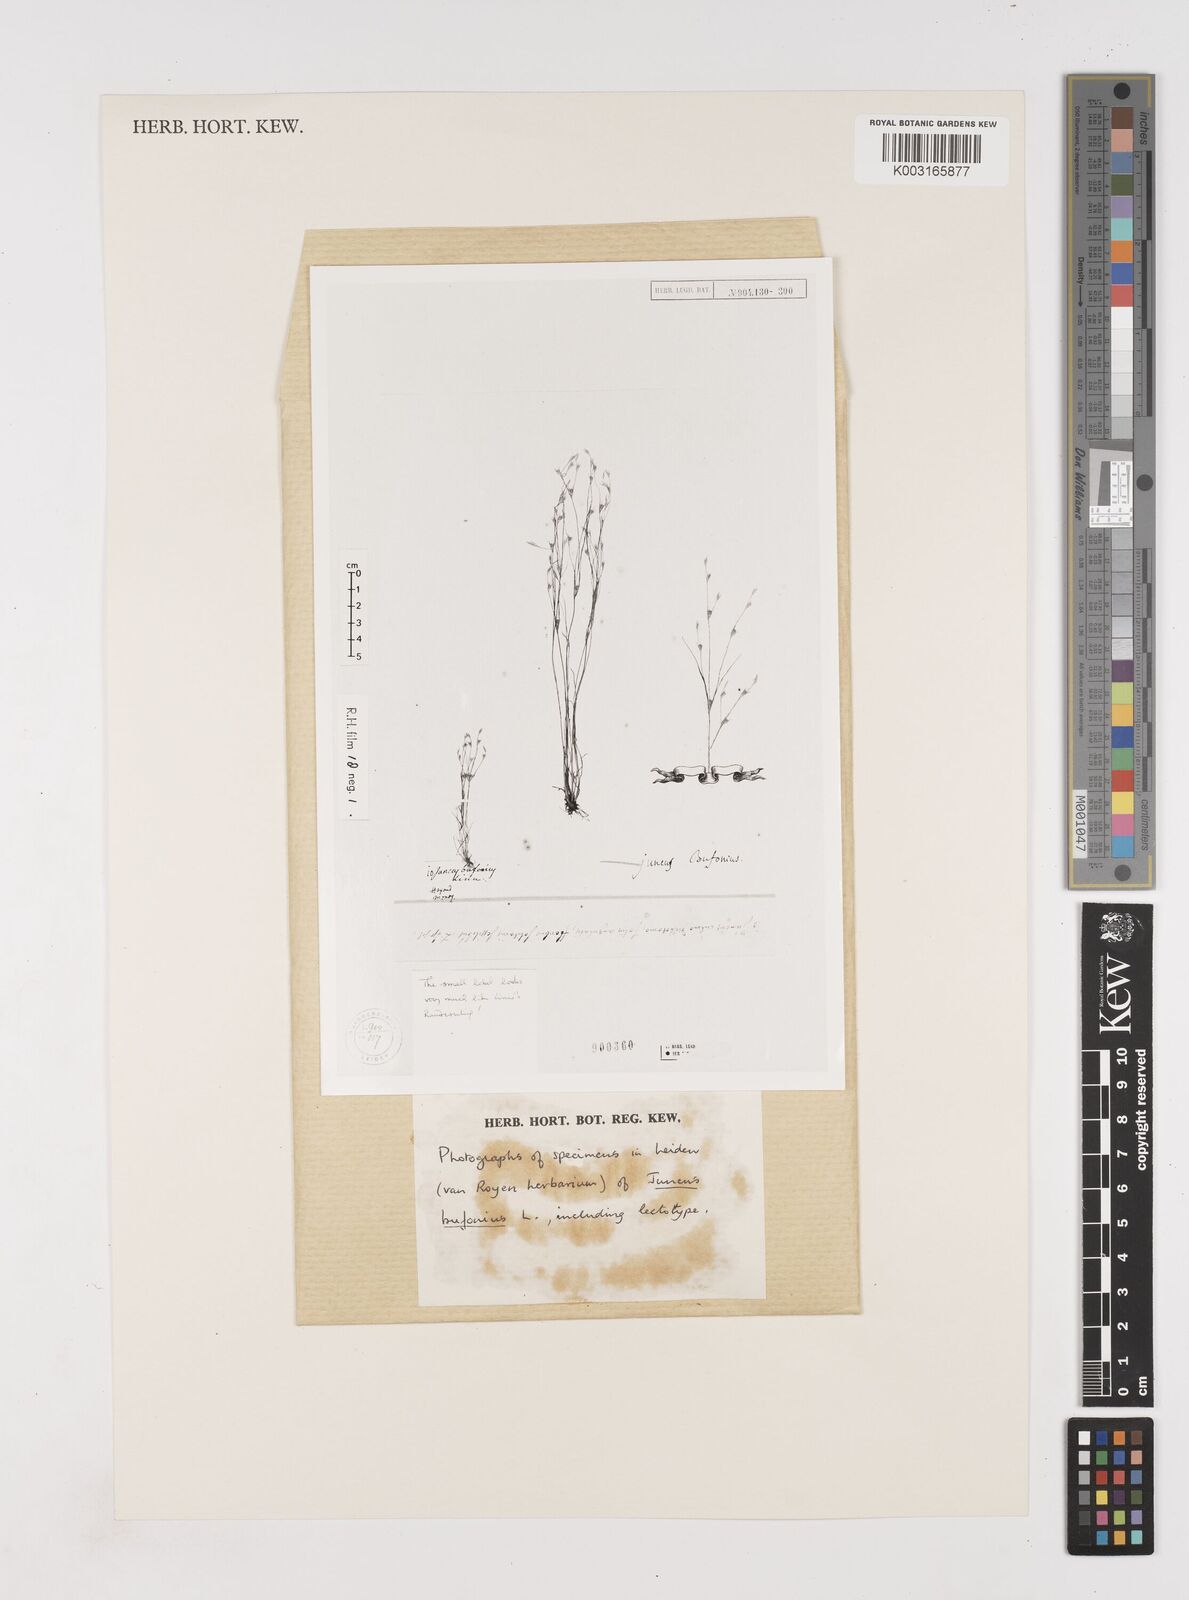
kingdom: Plantae
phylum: Tracheophyta
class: Liliopsida
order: Poales
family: Juncaceae
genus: Juncus
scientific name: Juncus bufonius
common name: Toad rush
